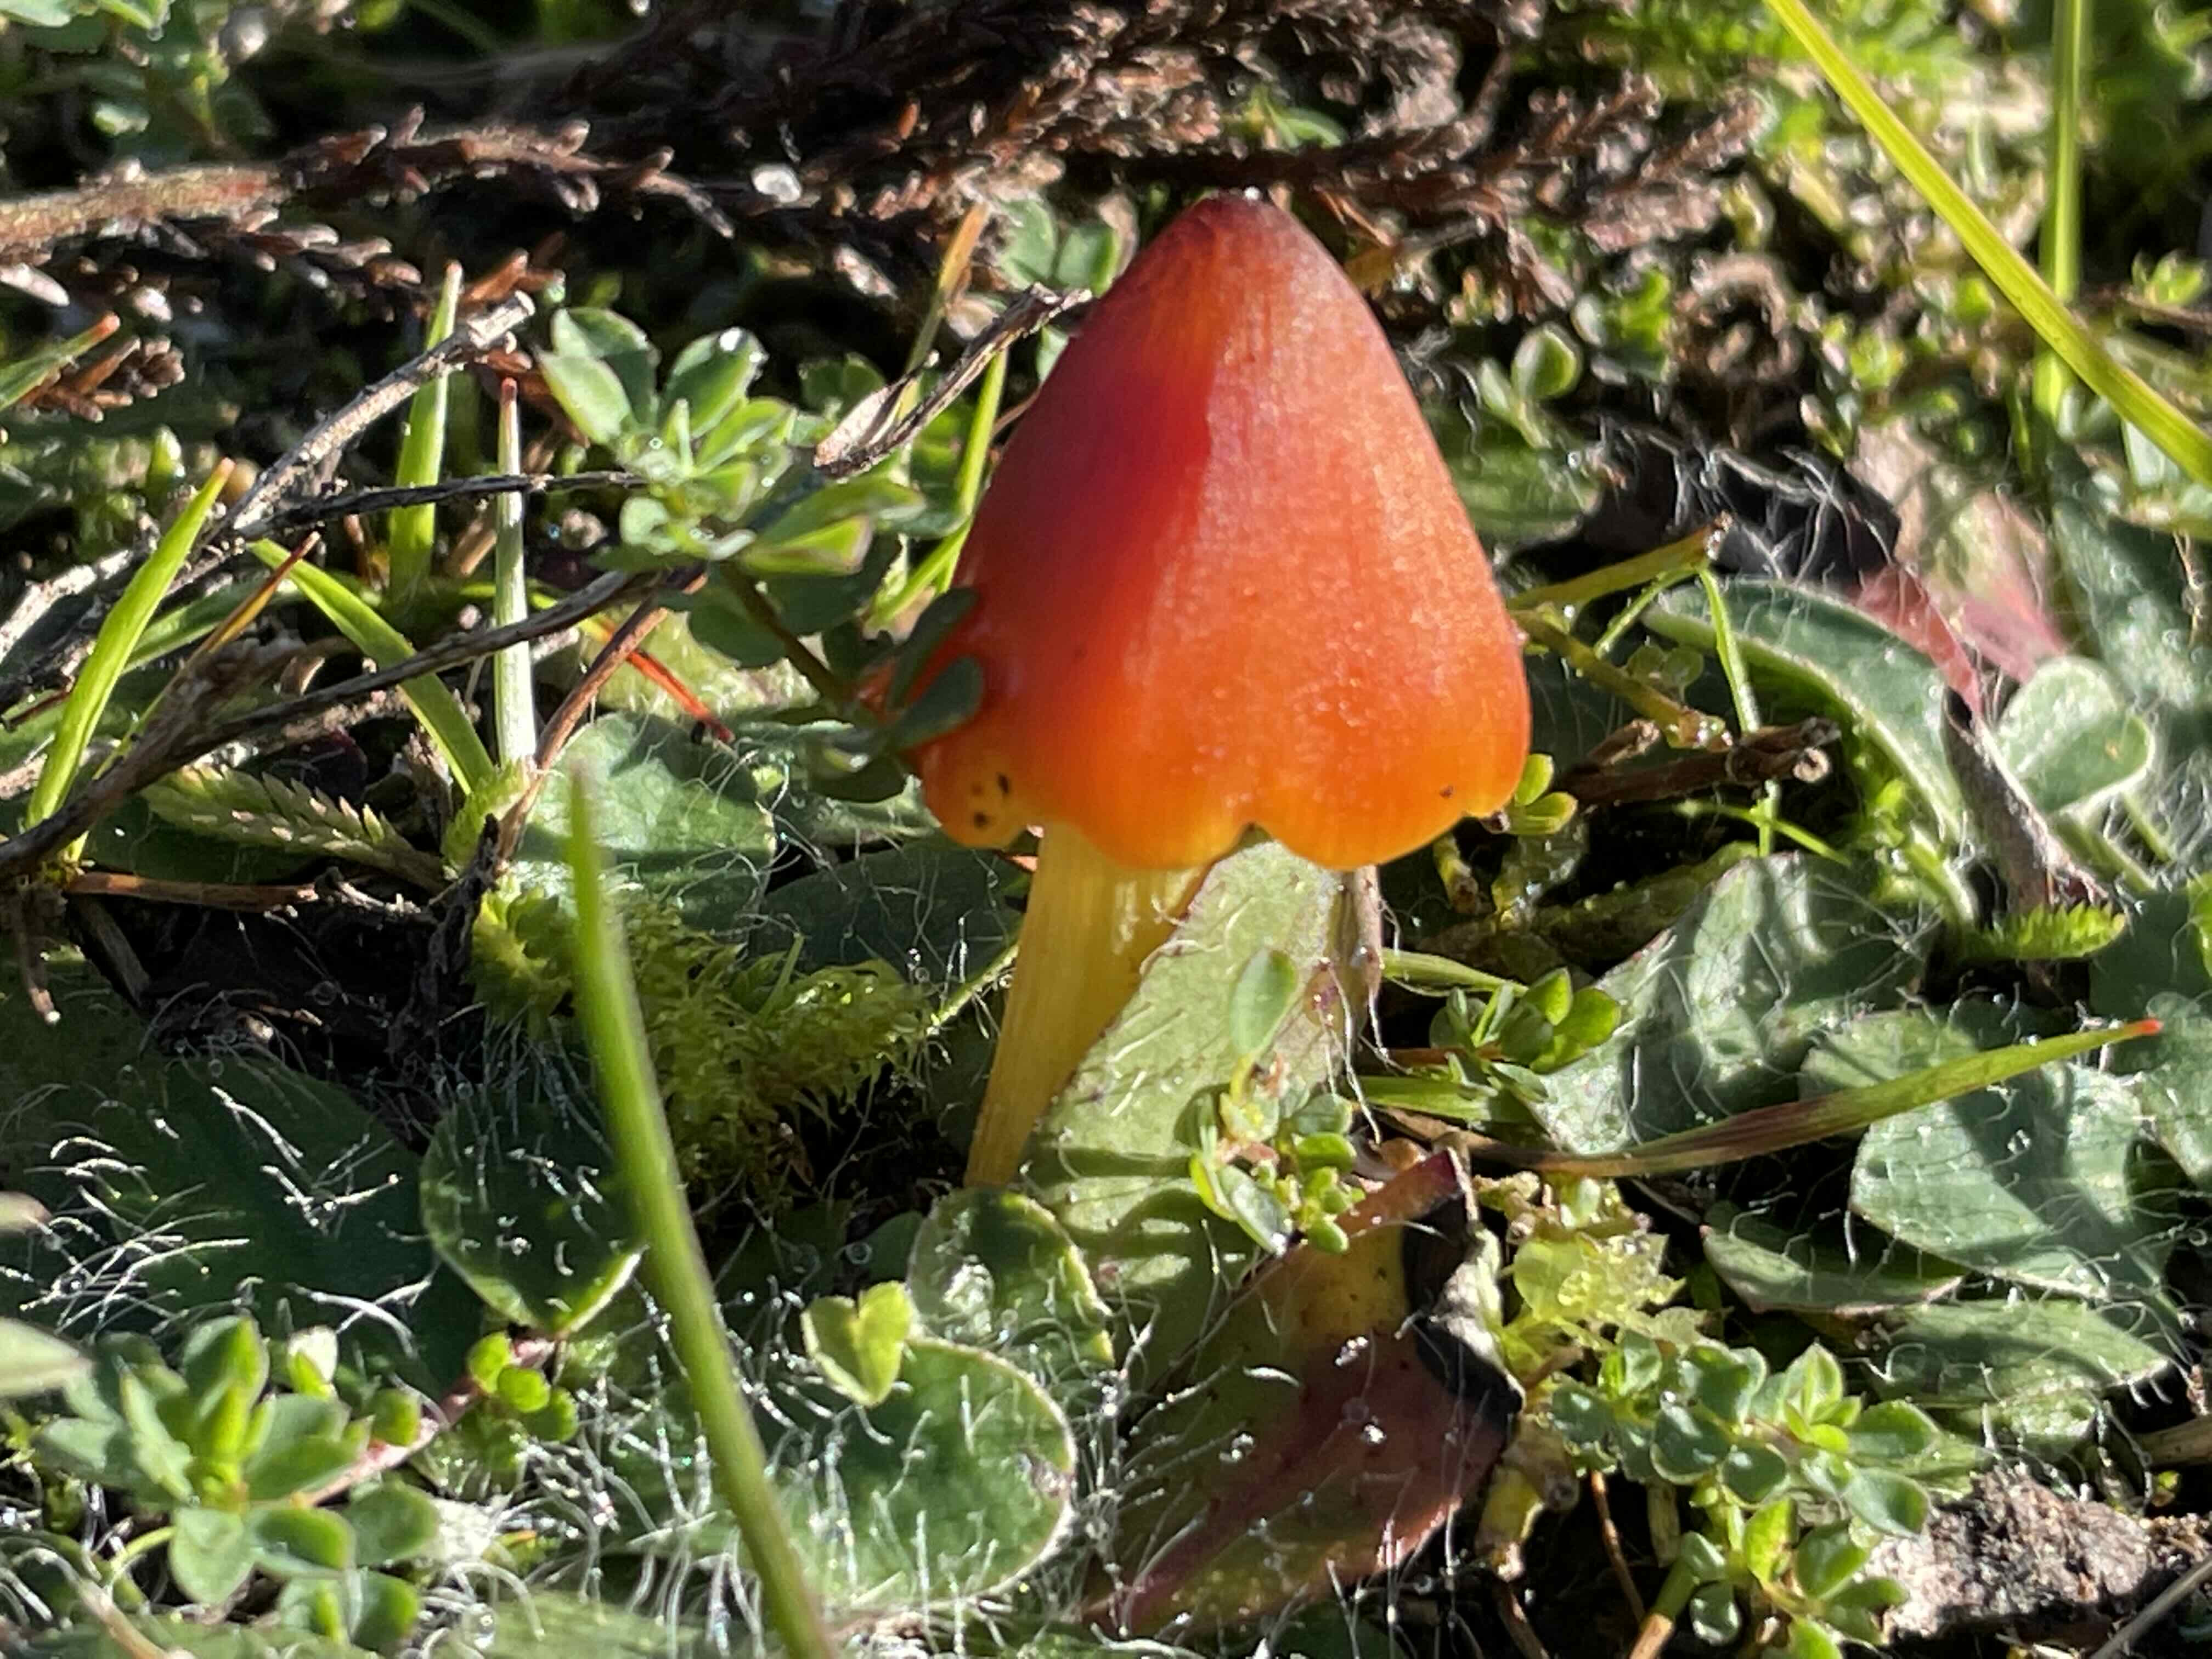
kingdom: Fungi
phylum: Basidiomycota
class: Agaricomycetes
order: Agaricales
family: Hygrophoraceae
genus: Hygrocybe
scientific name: Hygrocybe conica
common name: kegle-vokshat
